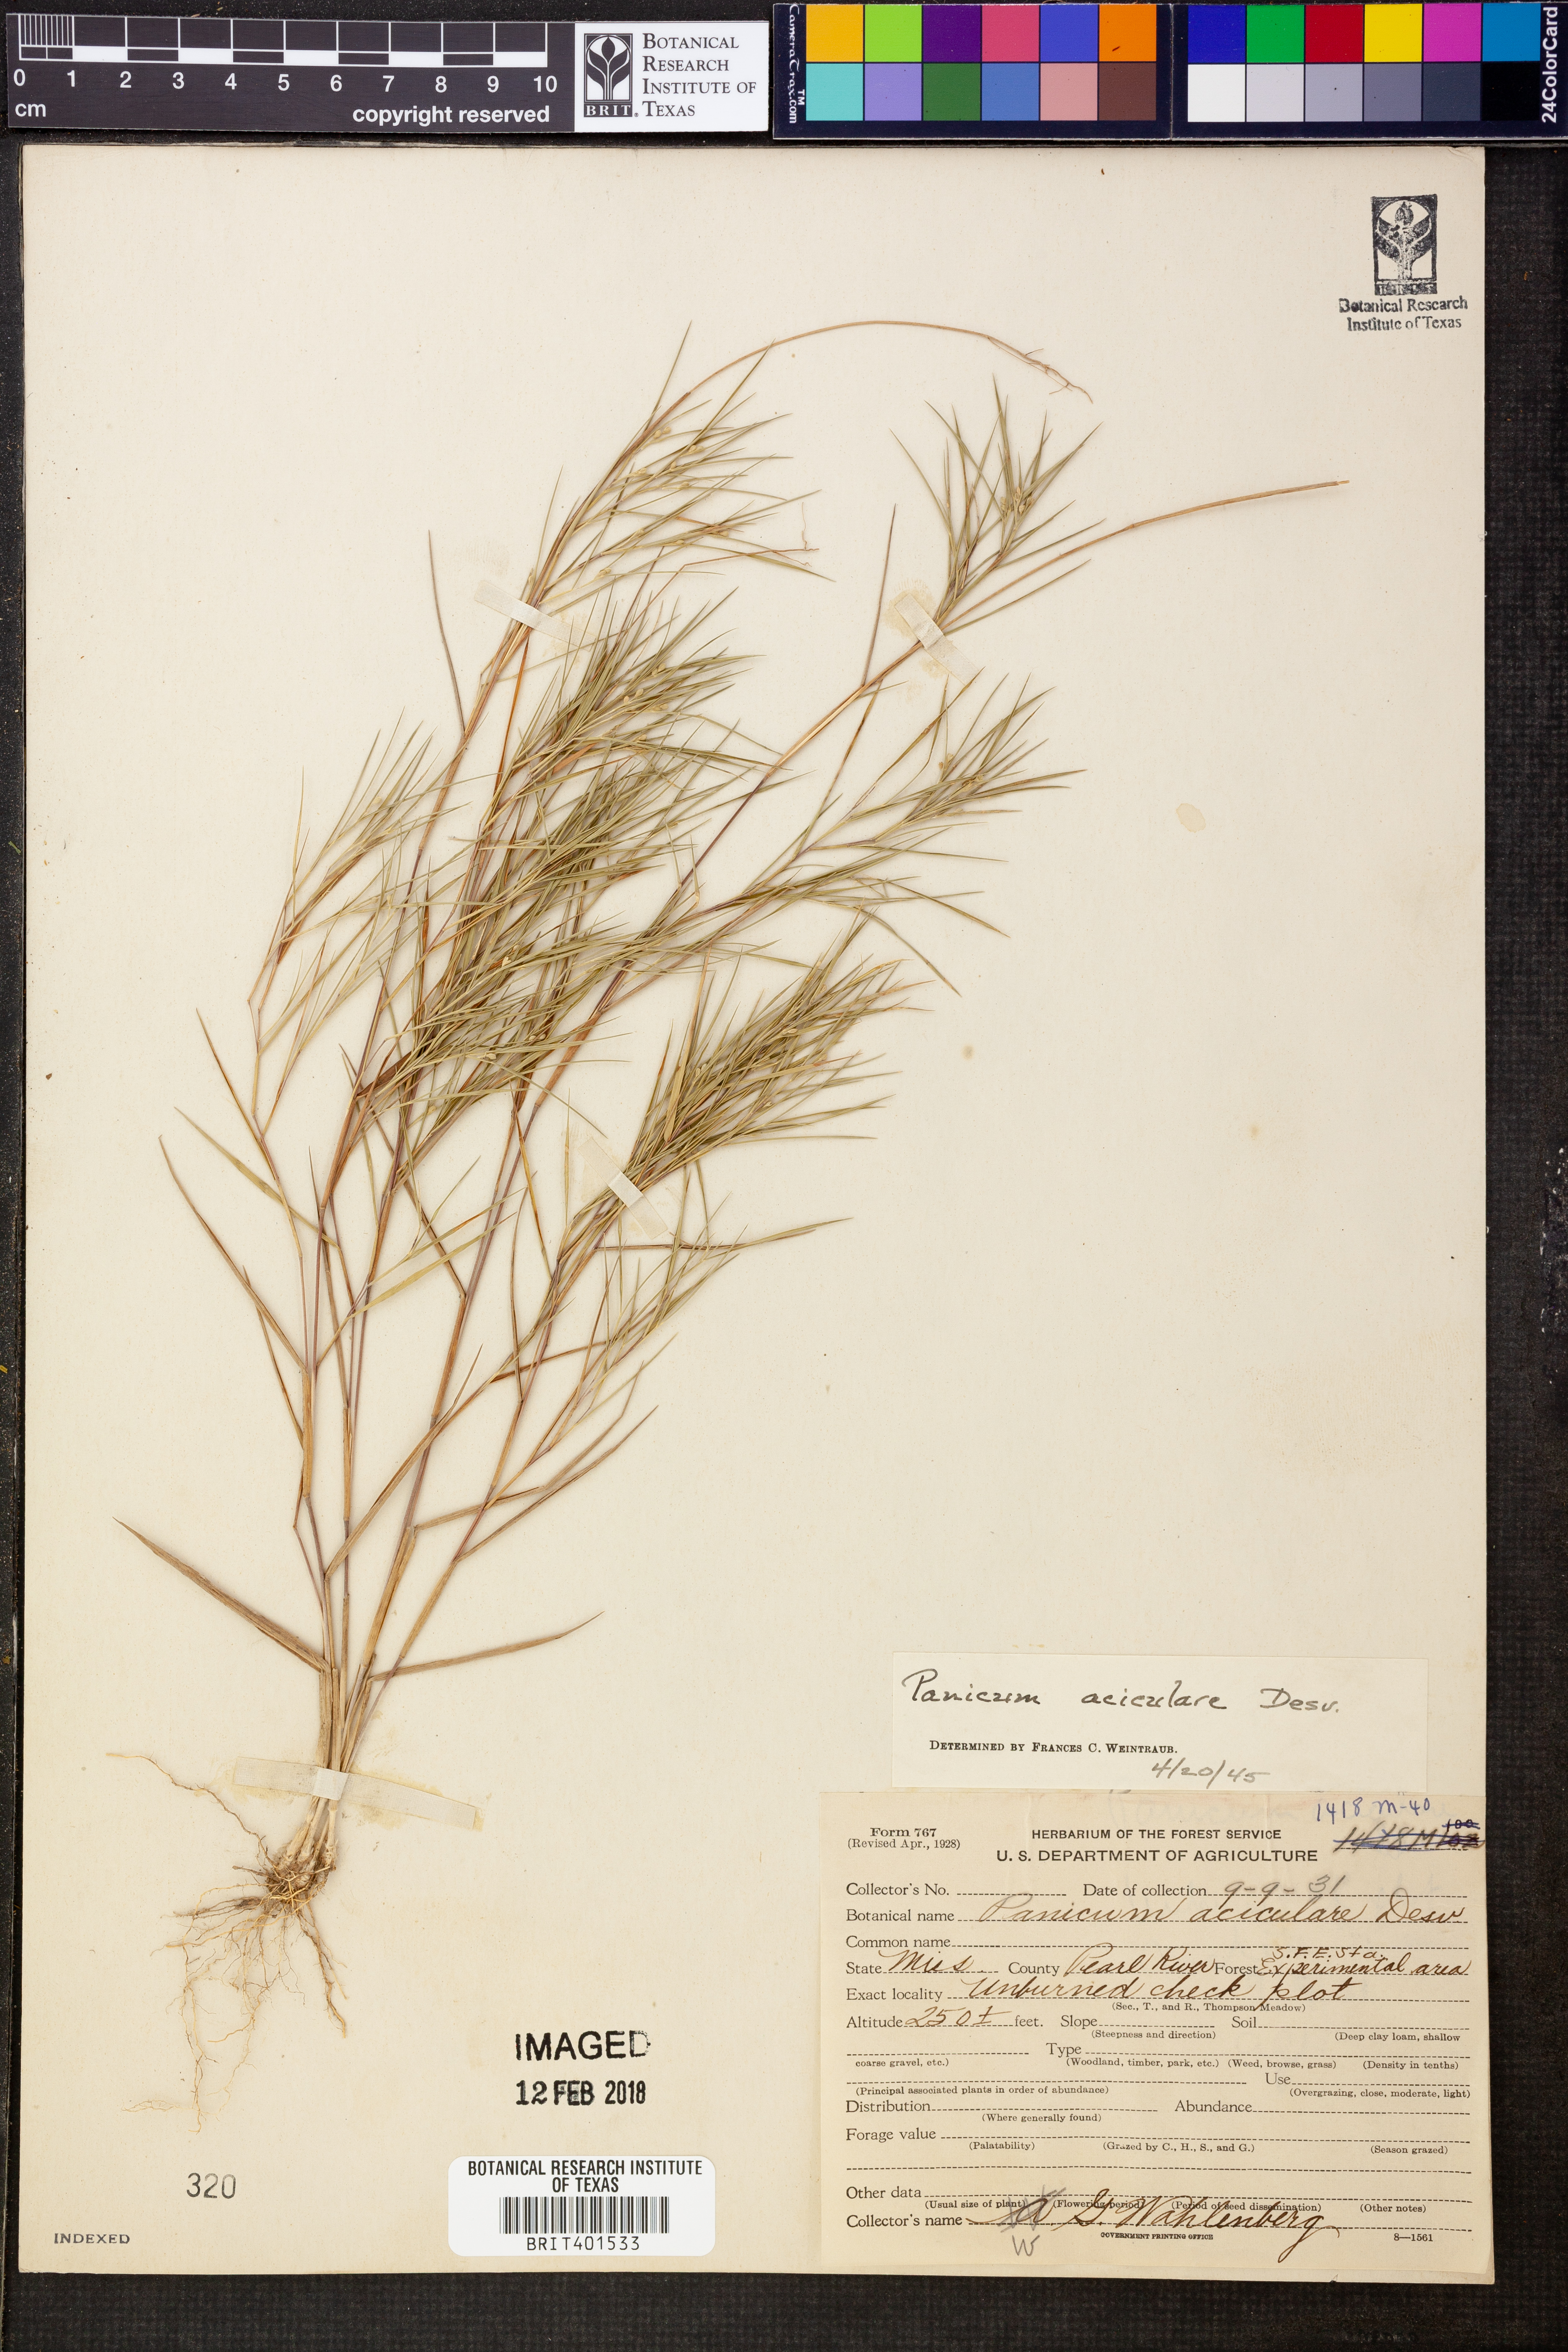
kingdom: Plantae
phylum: Tracheophyta
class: Liliopsida
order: Poales
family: Poaceae
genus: Dichanthelium
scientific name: Dichanthelium aciculare
